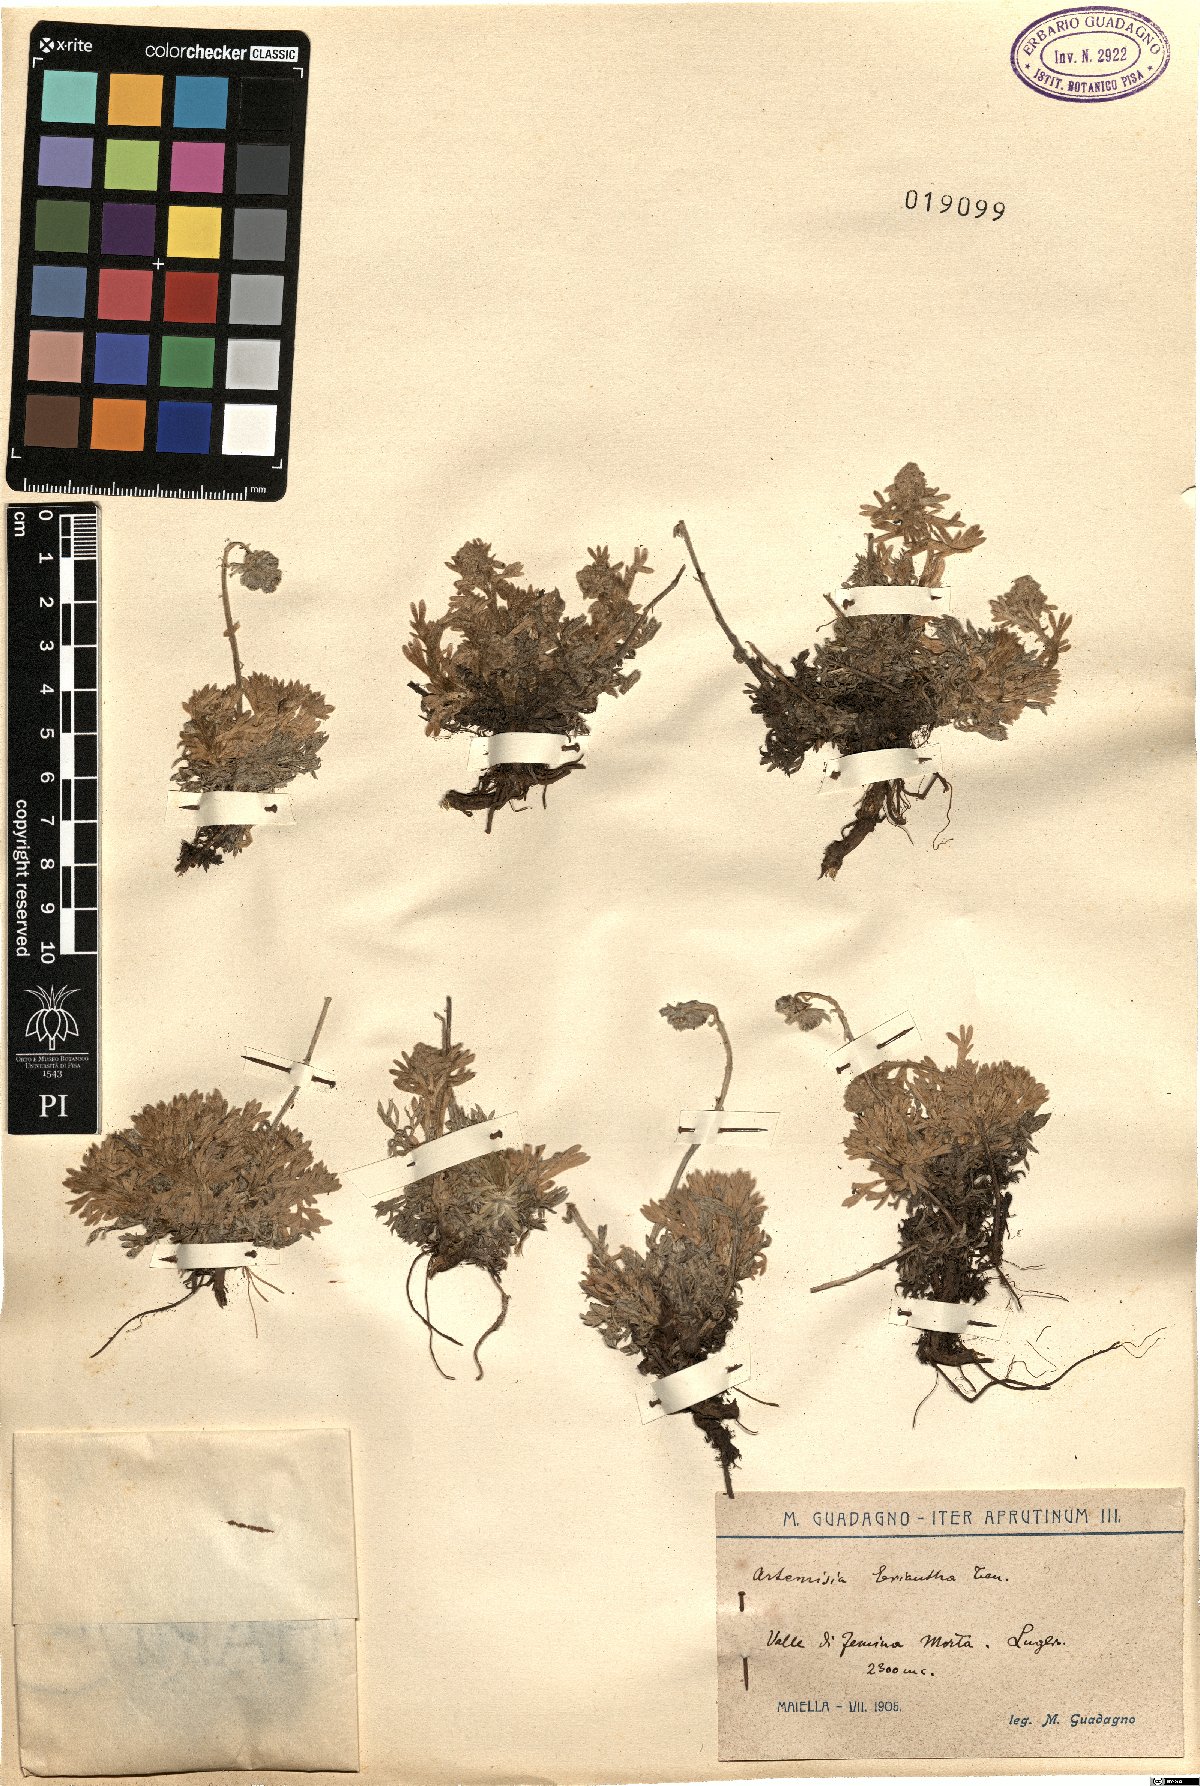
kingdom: Plantae
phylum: Tracheophyta
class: Magnoliopsida
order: Asterales
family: Asteraceae
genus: Artemisia
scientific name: Artemisia eriantha
